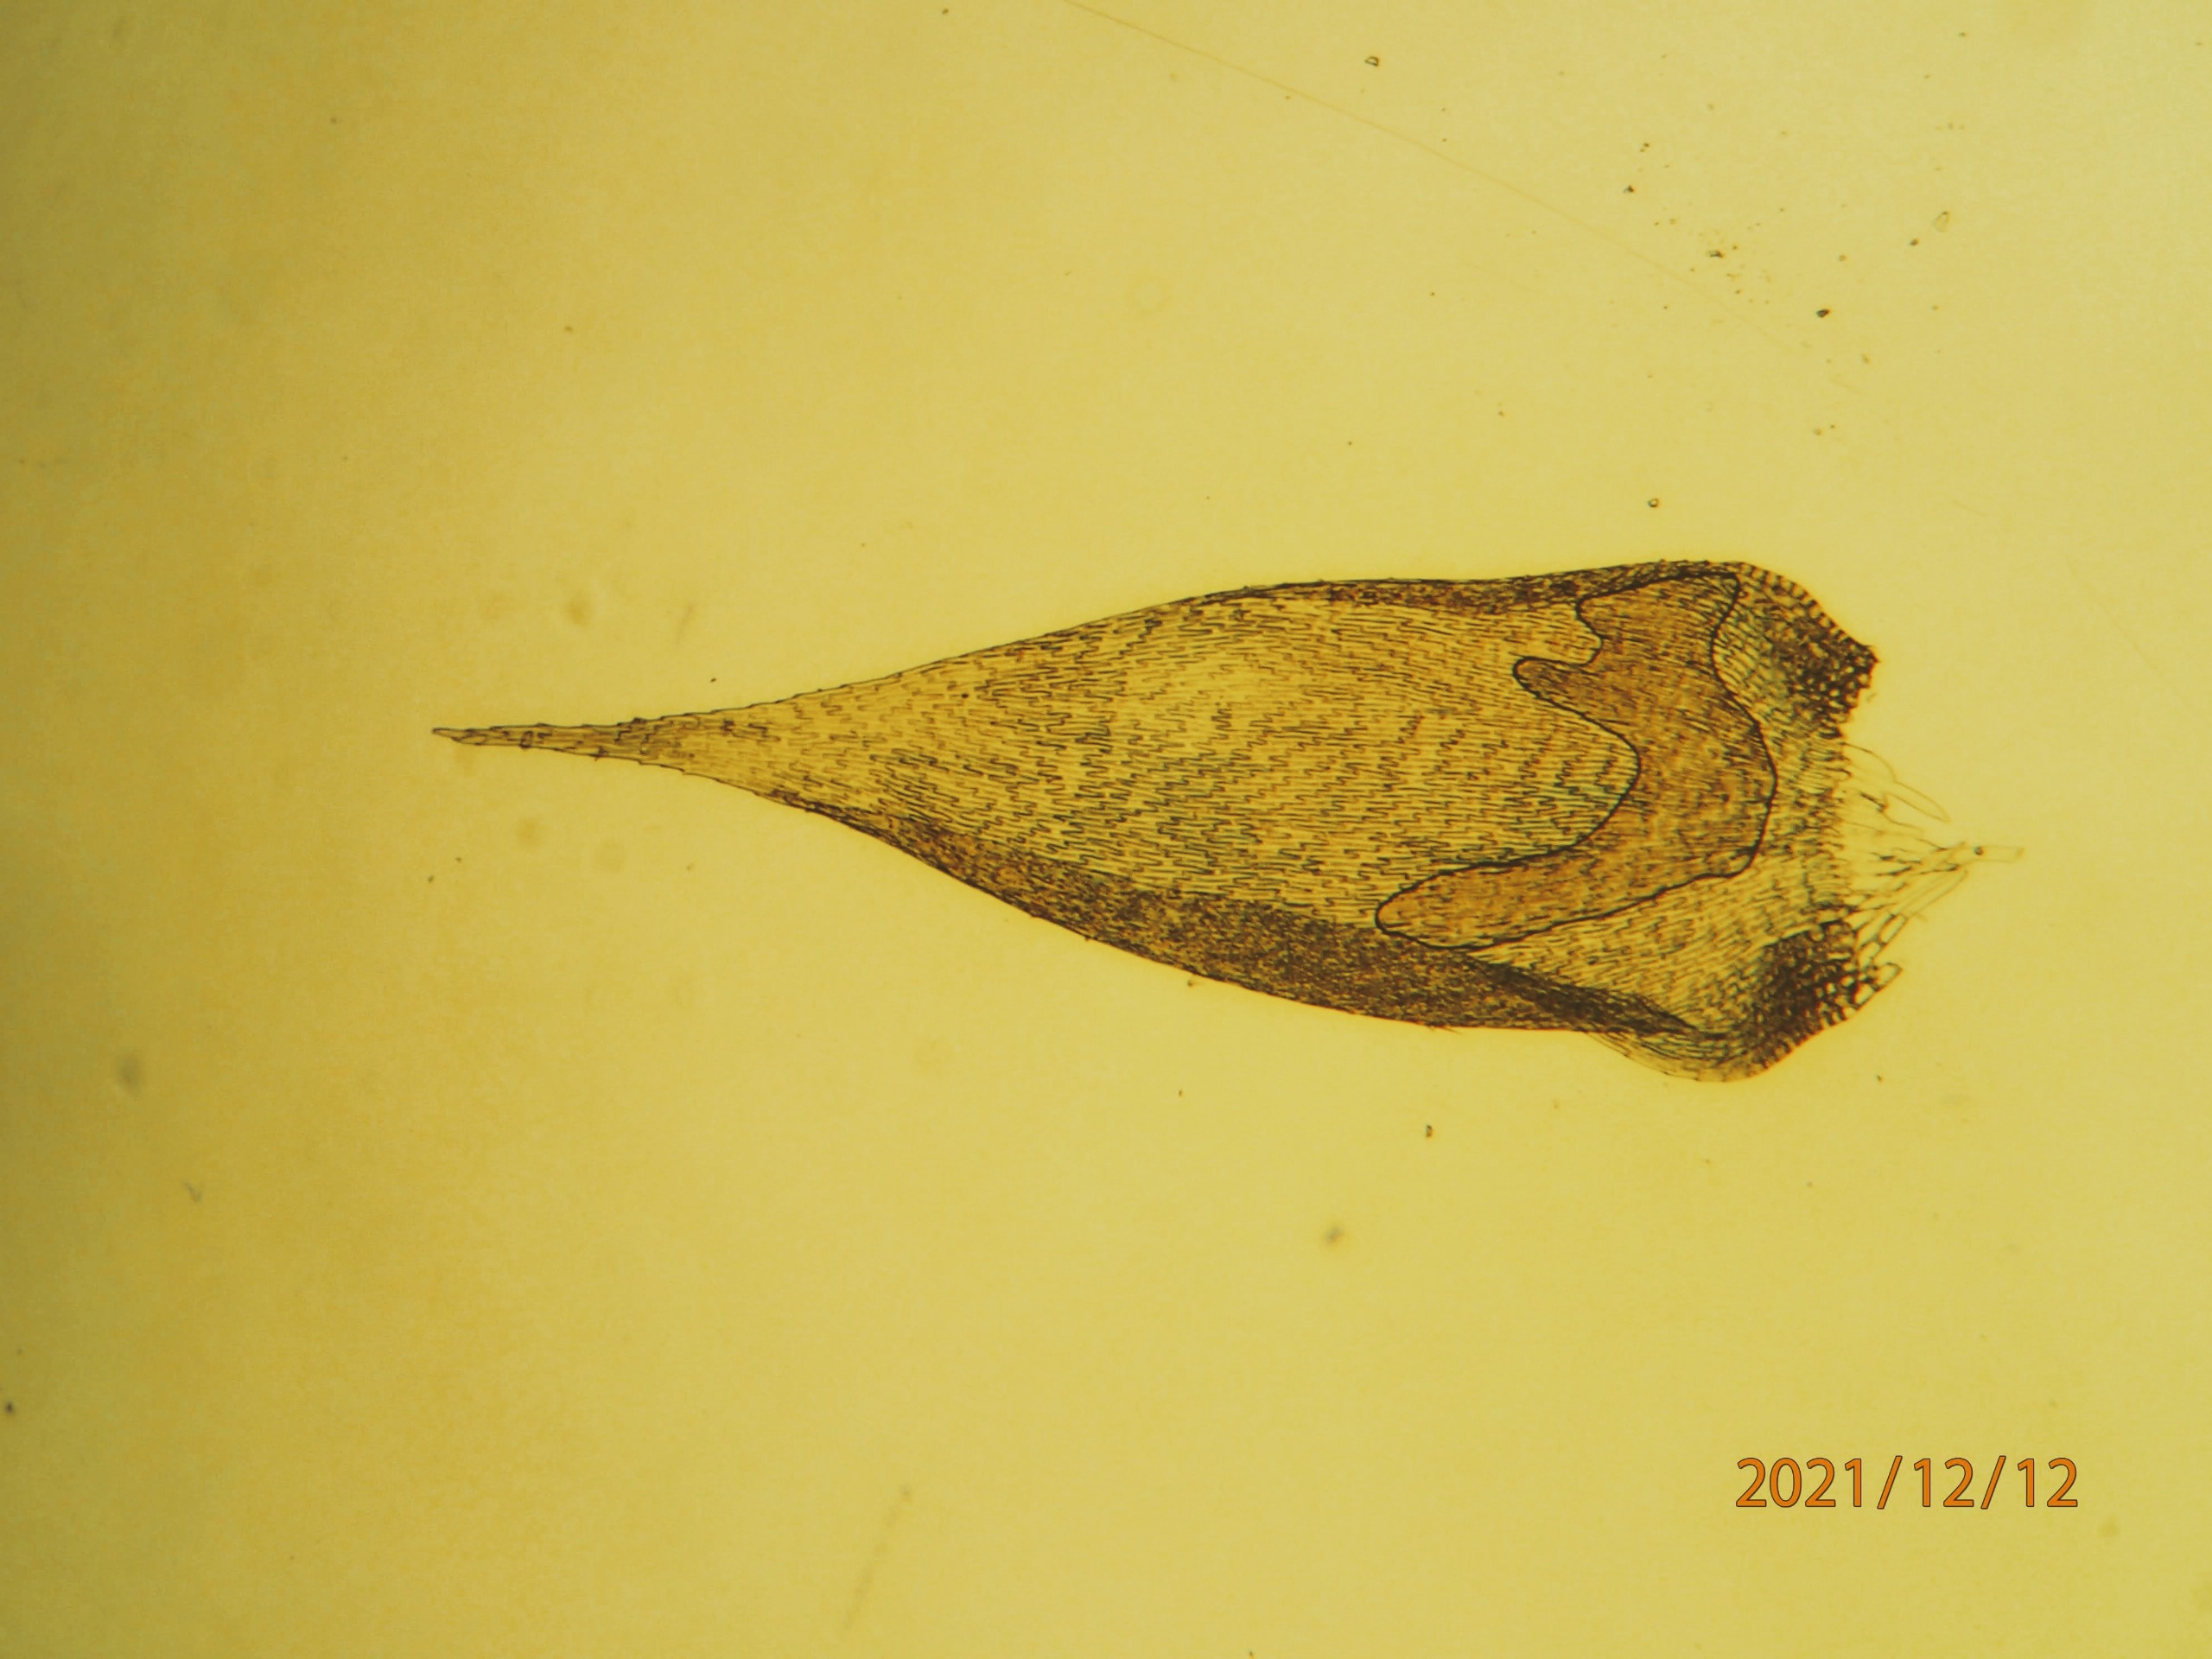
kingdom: Plantae
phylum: Bryophyta
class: Bryopsida
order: Hypnales
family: Hypnaceae
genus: Hypnum
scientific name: Hypnum resupinatum
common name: Ret cypresmos
